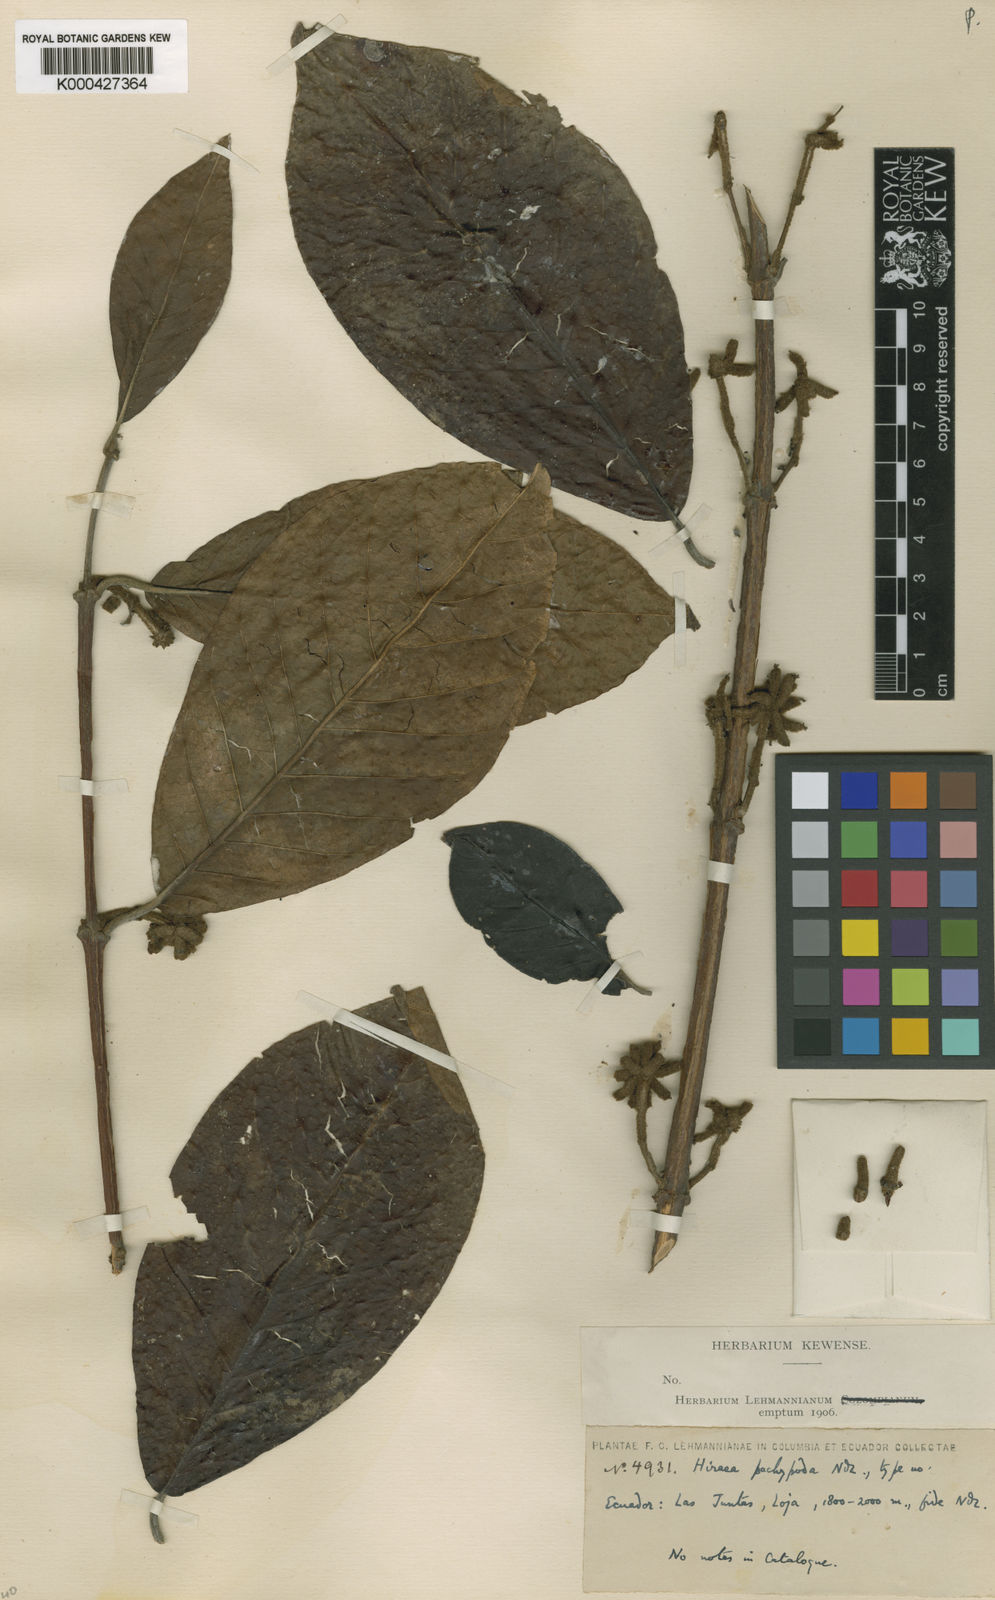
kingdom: Plantae
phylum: Tracheophyta
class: Magnoliopsida
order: Malpighiales
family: Malpighiaceae
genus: Hiraea
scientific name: Hiraea pachypoda
